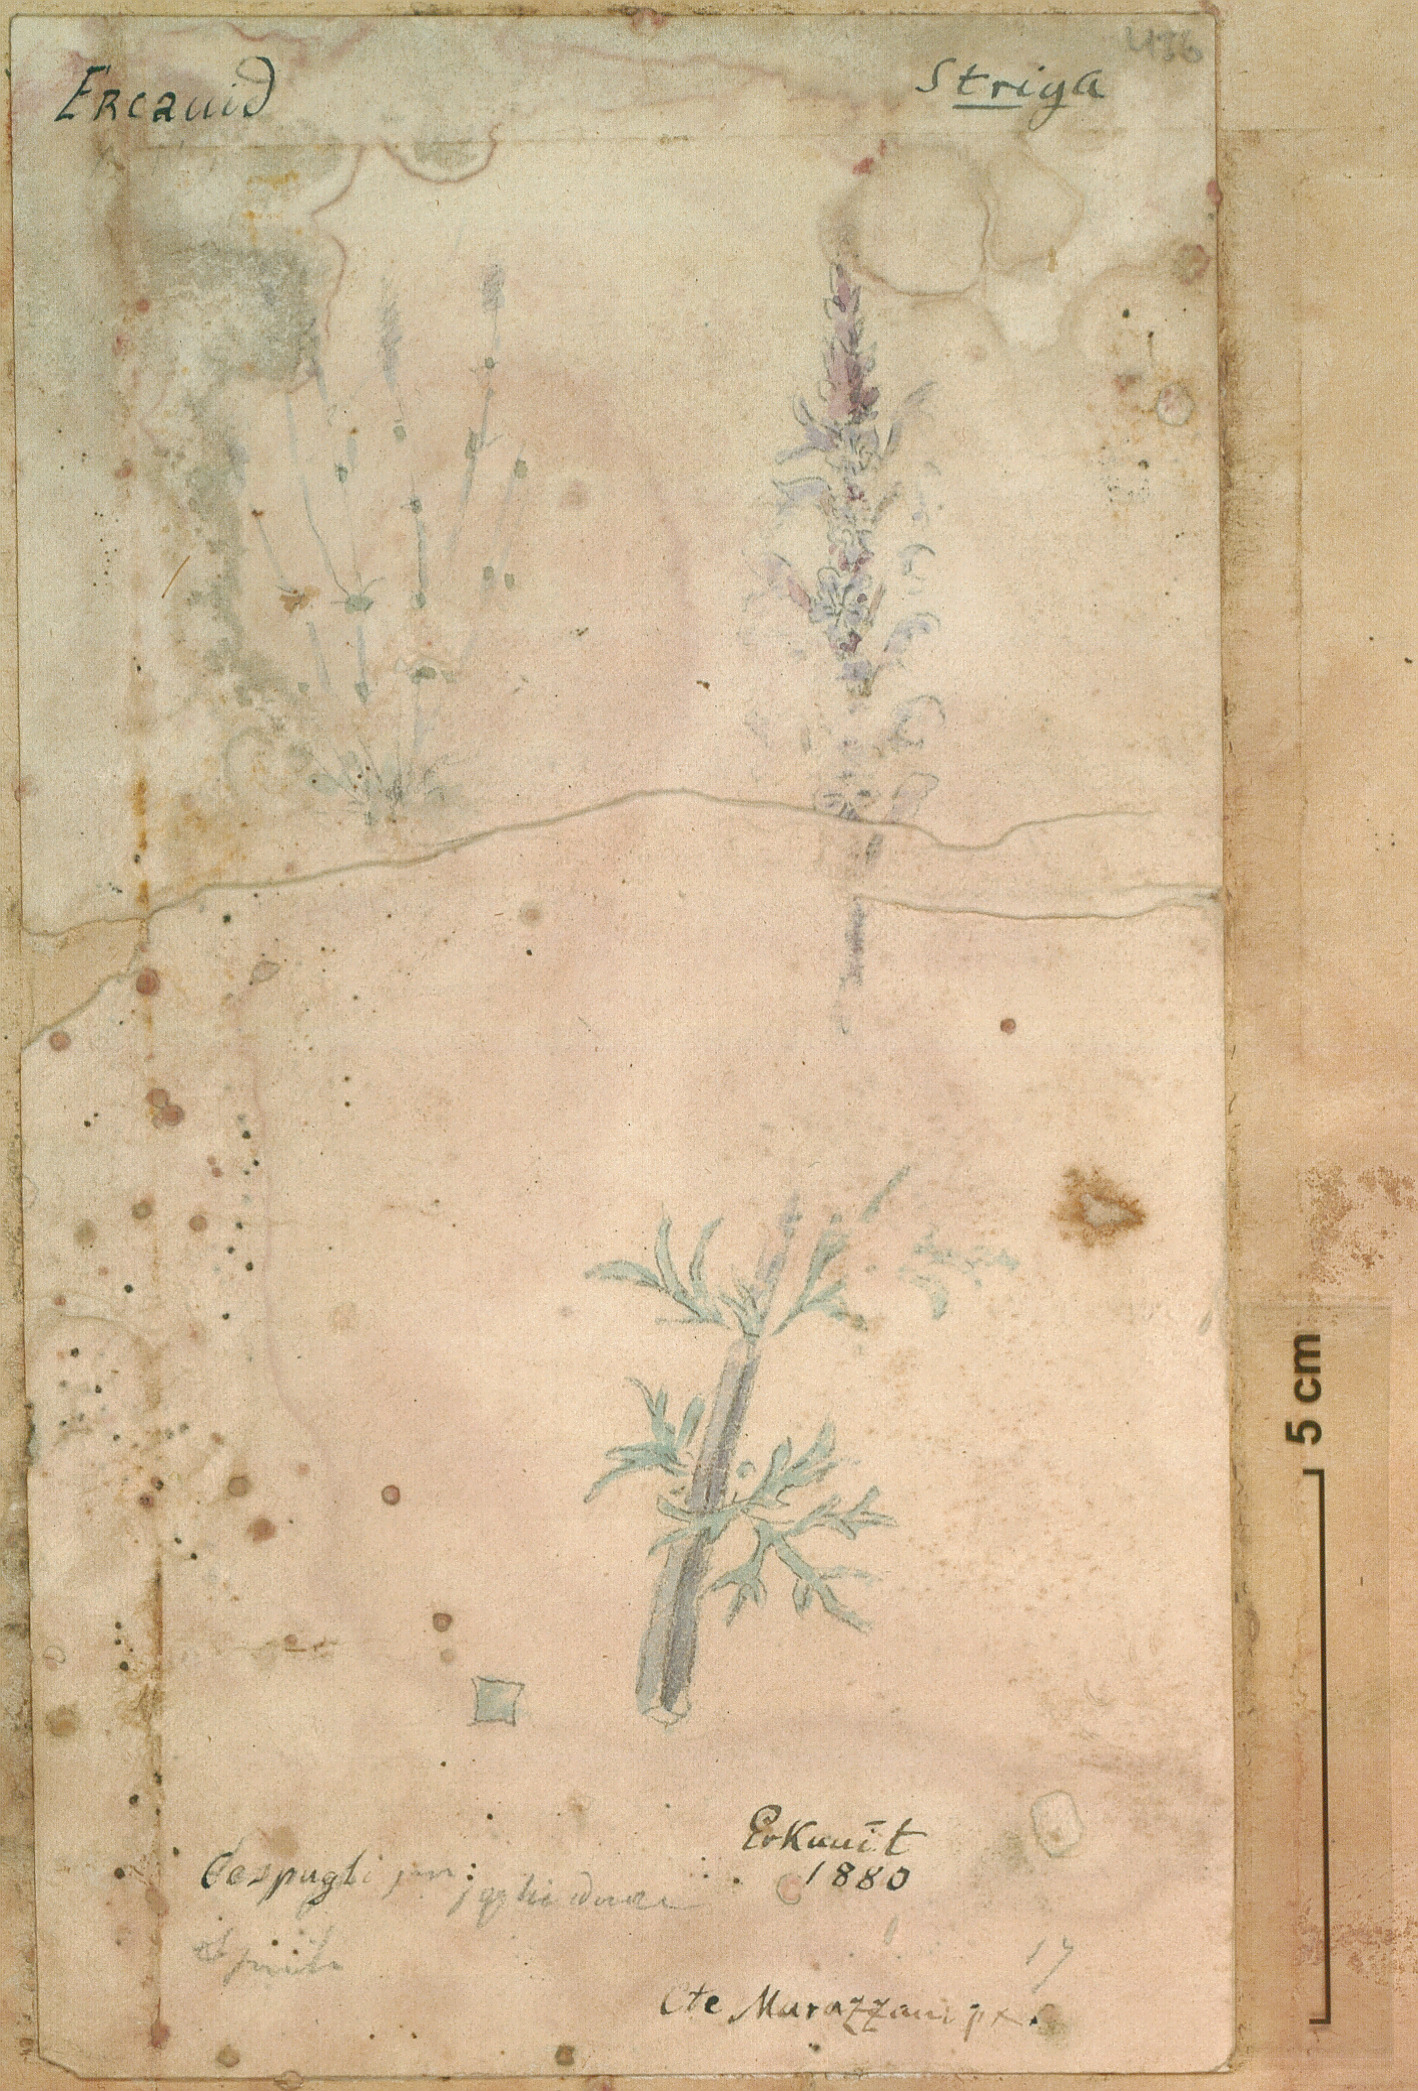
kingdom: Plantae
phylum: Tracheophyta
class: Magnoliopsida
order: Lamiales
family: Orobanchaceae
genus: Striga
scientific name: Striga
